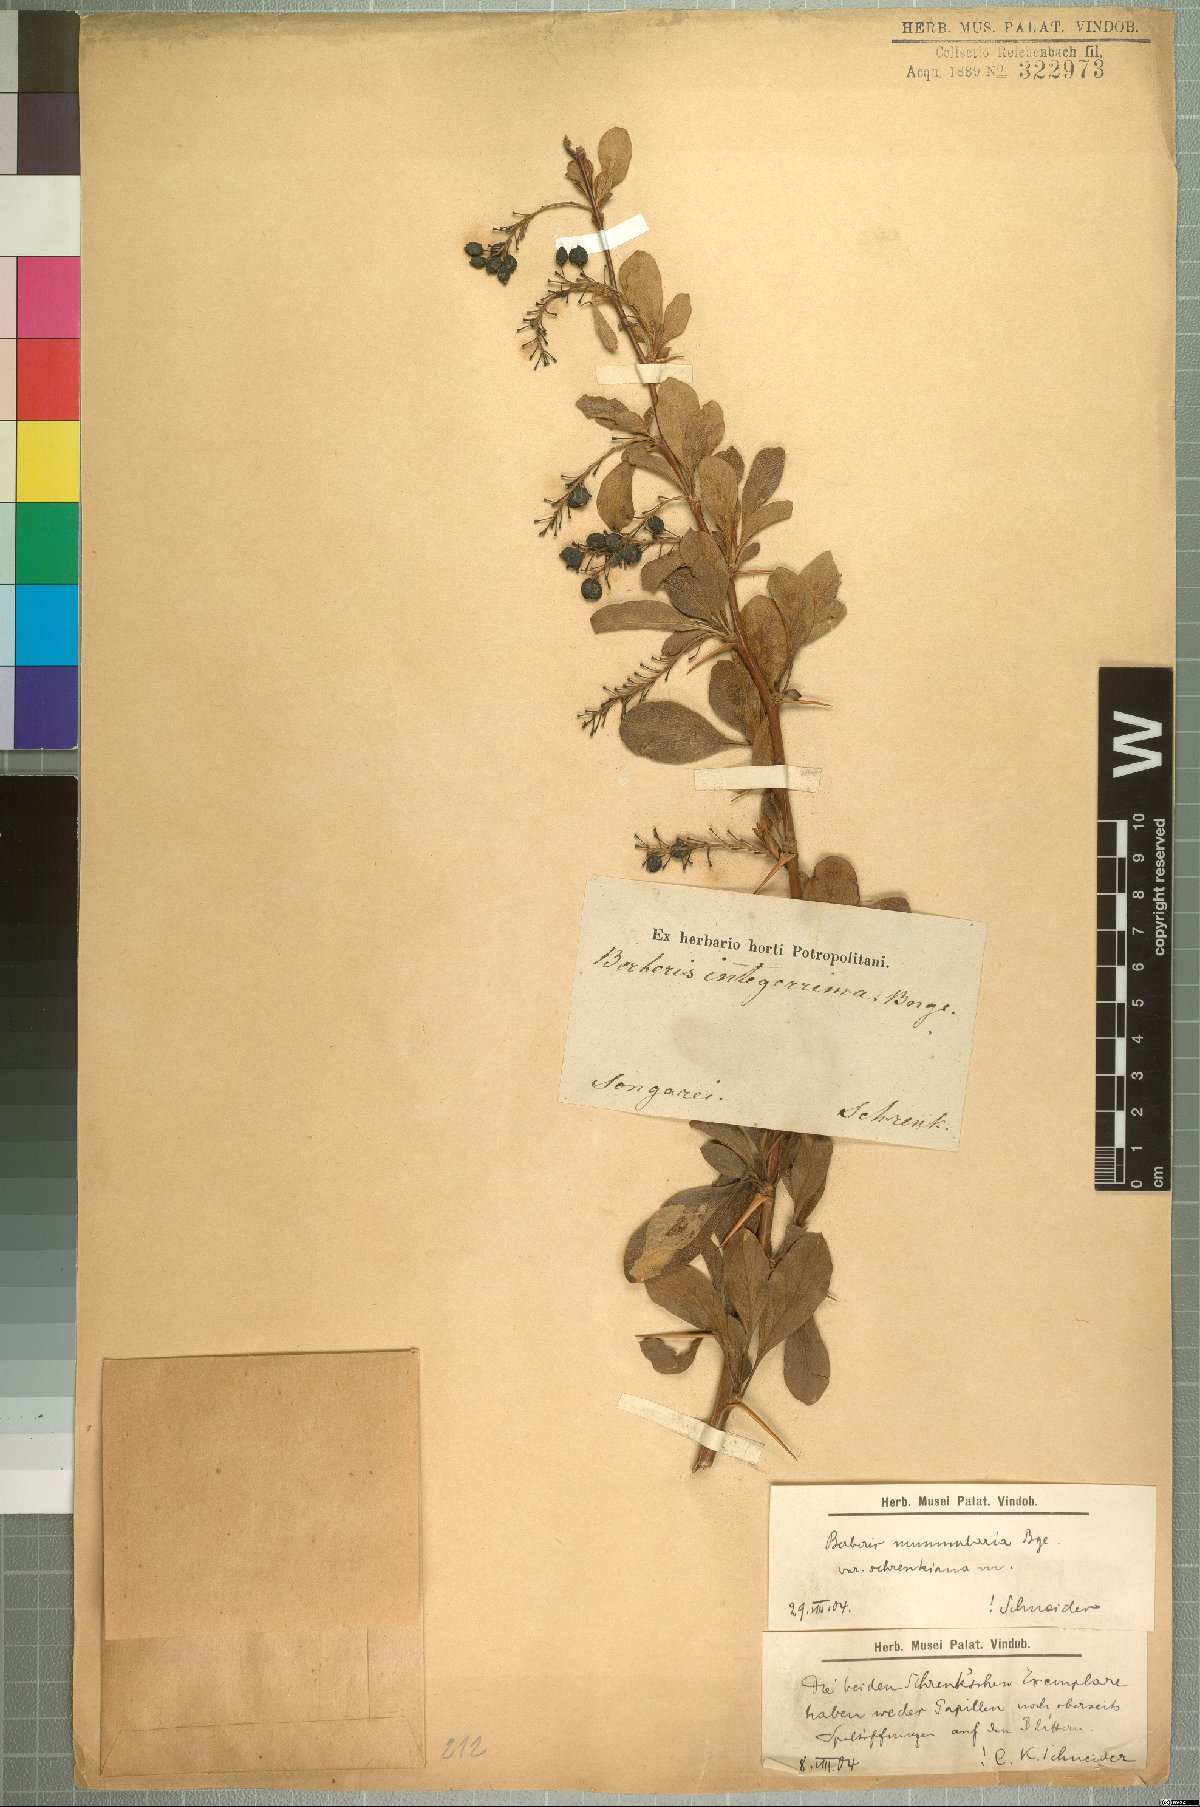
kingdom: Plantae
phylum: Tracheophyta
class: Magnoliopsida
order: Ranunculales
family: Berberidaceae
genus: Berberis
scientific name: Berberis integerrima
